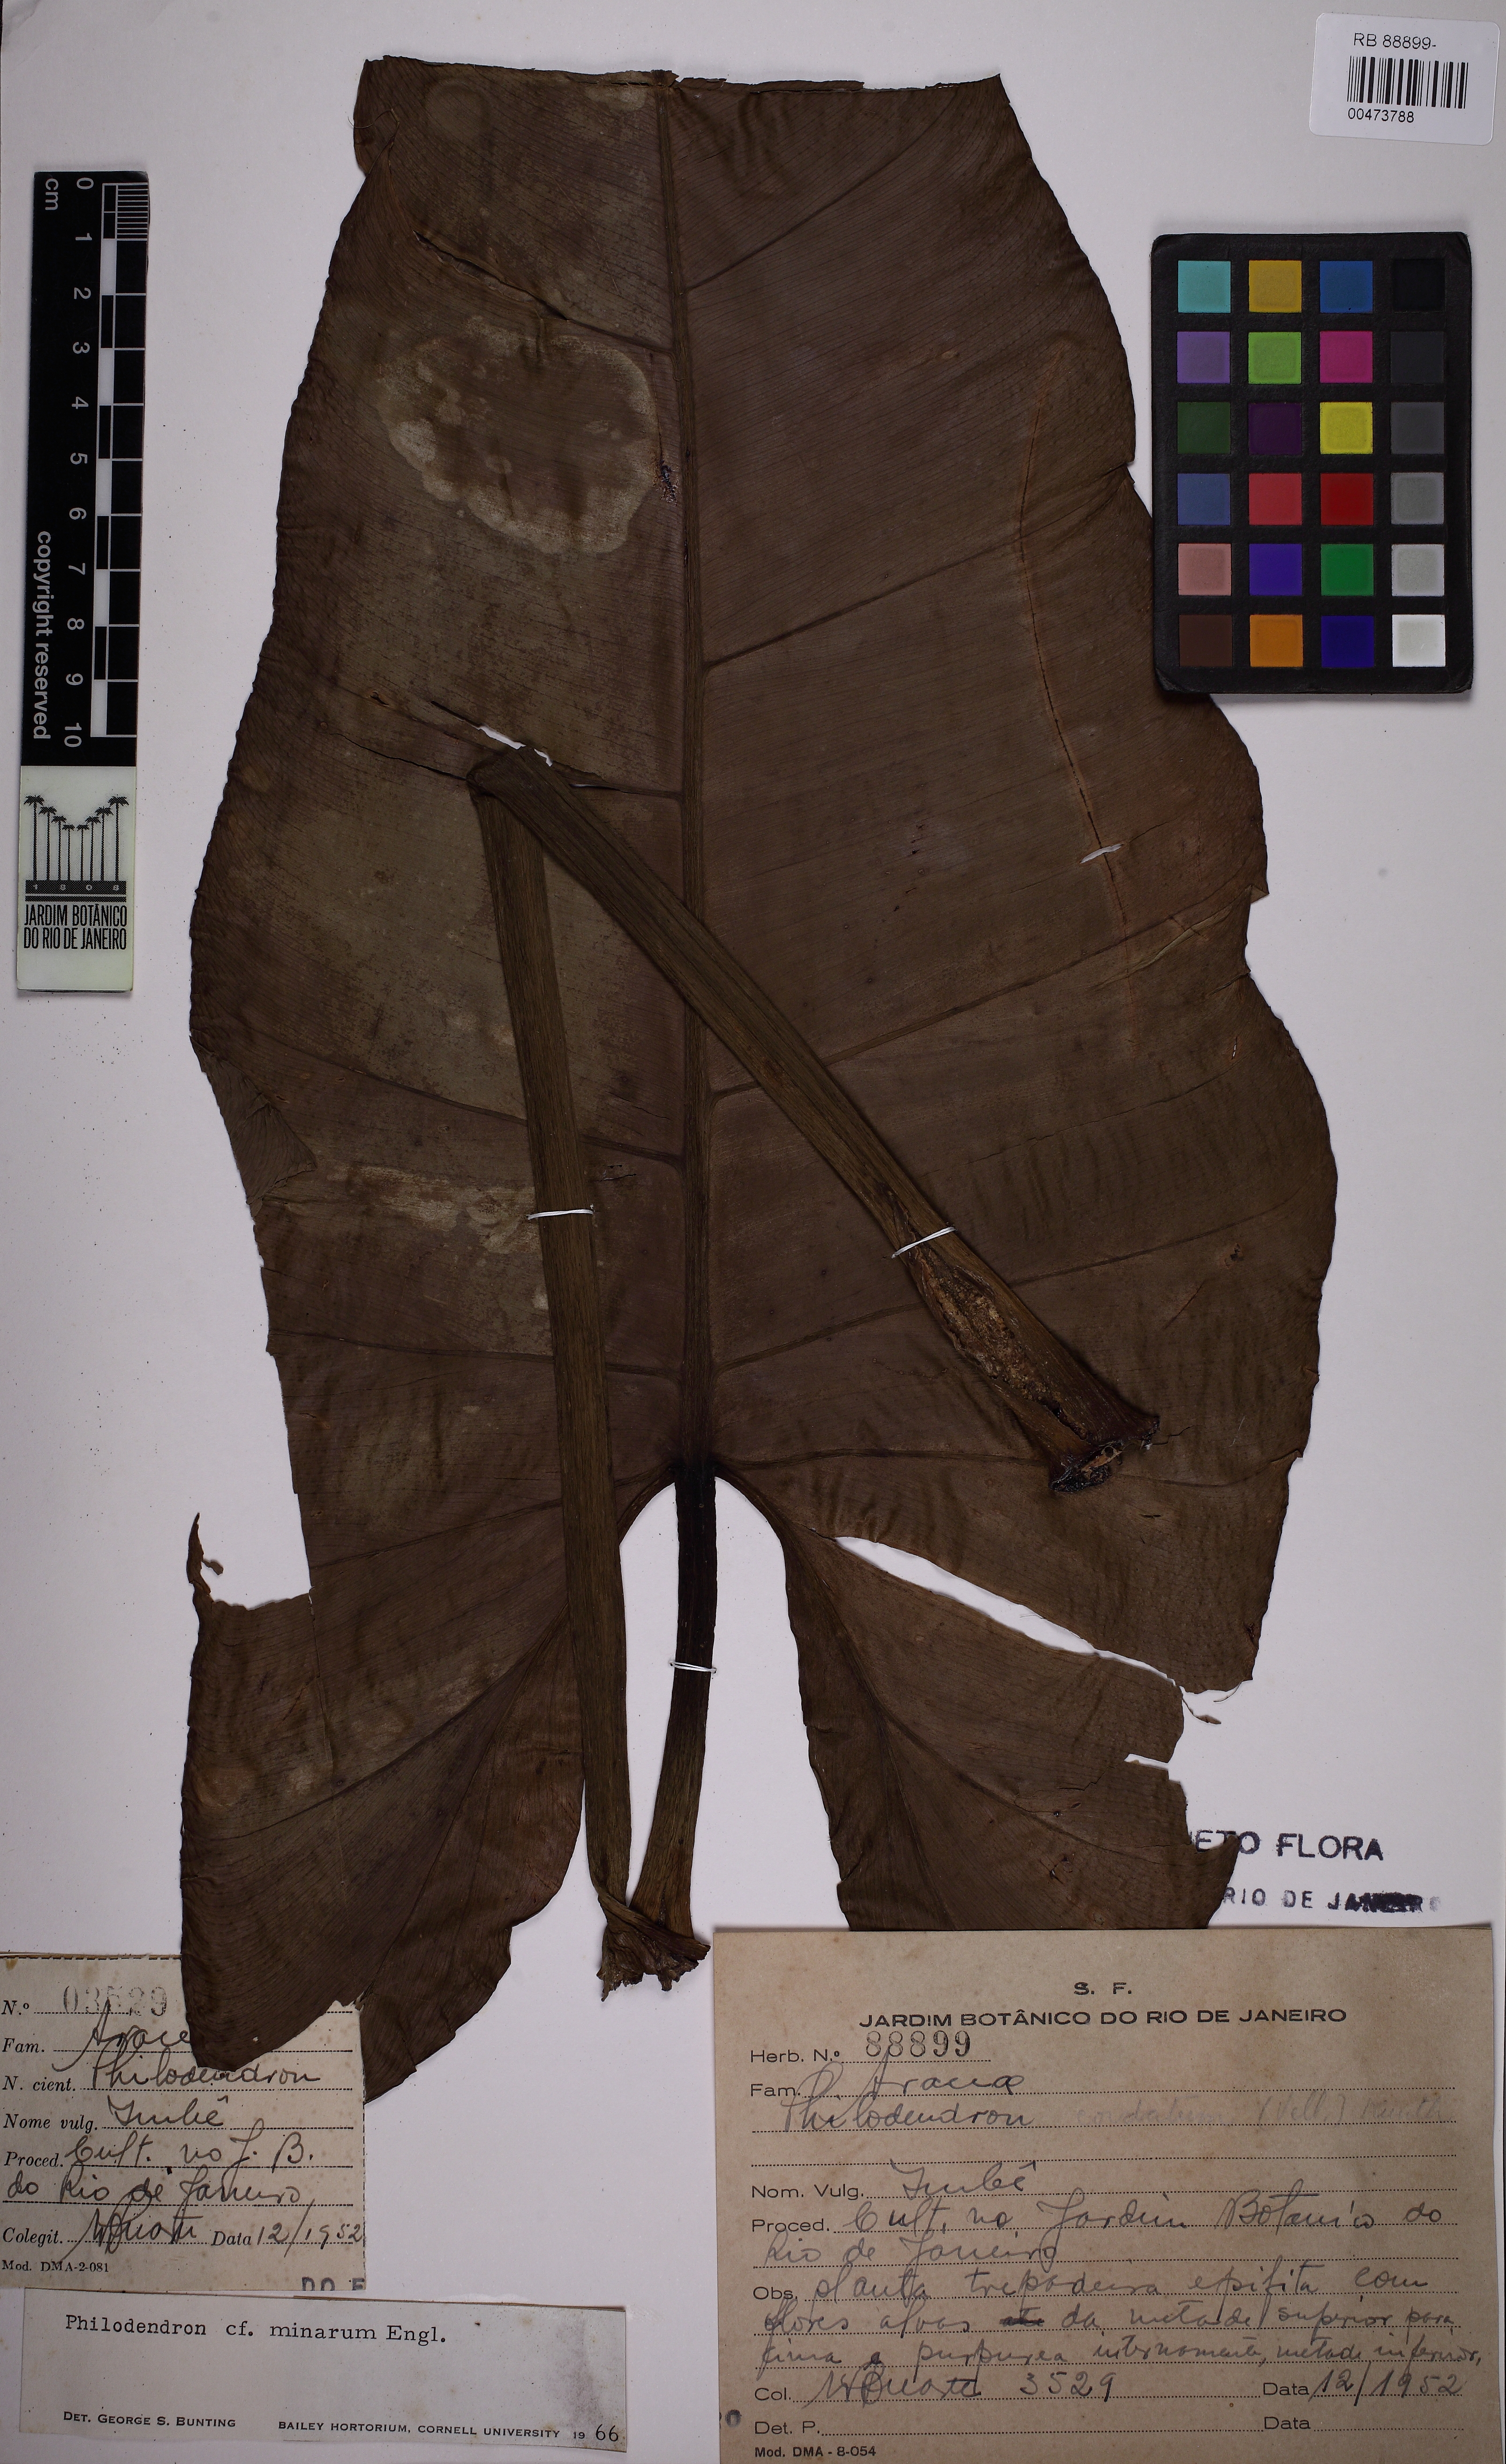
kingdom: Plantae
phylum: Tracheophyta
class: Liliopsida
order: Alismatales
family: Araceae
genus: Philodendron
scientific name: Philodendron minarum
